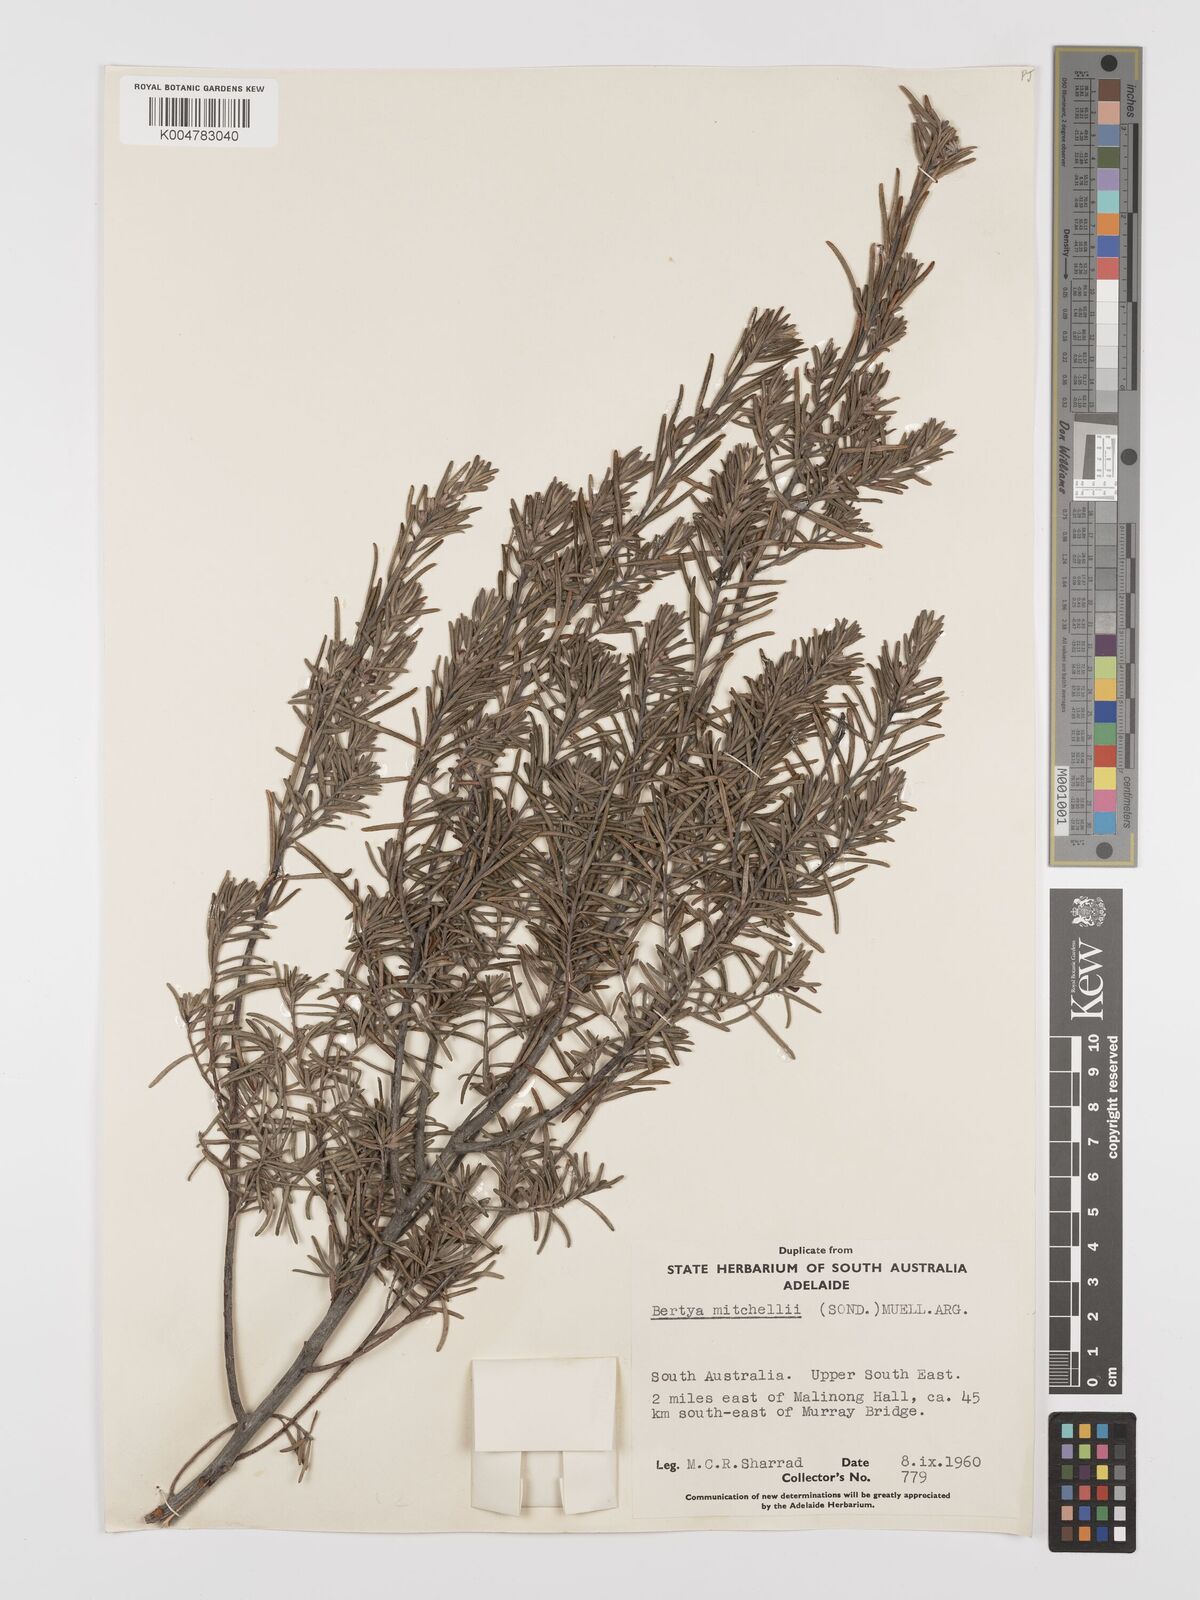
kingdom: Plantae
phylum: Tracheophyta
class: Magnoliopsida
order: Malpighiales
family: Euphorbiaceae
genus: Bertya
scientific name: Bertya oleifolia
